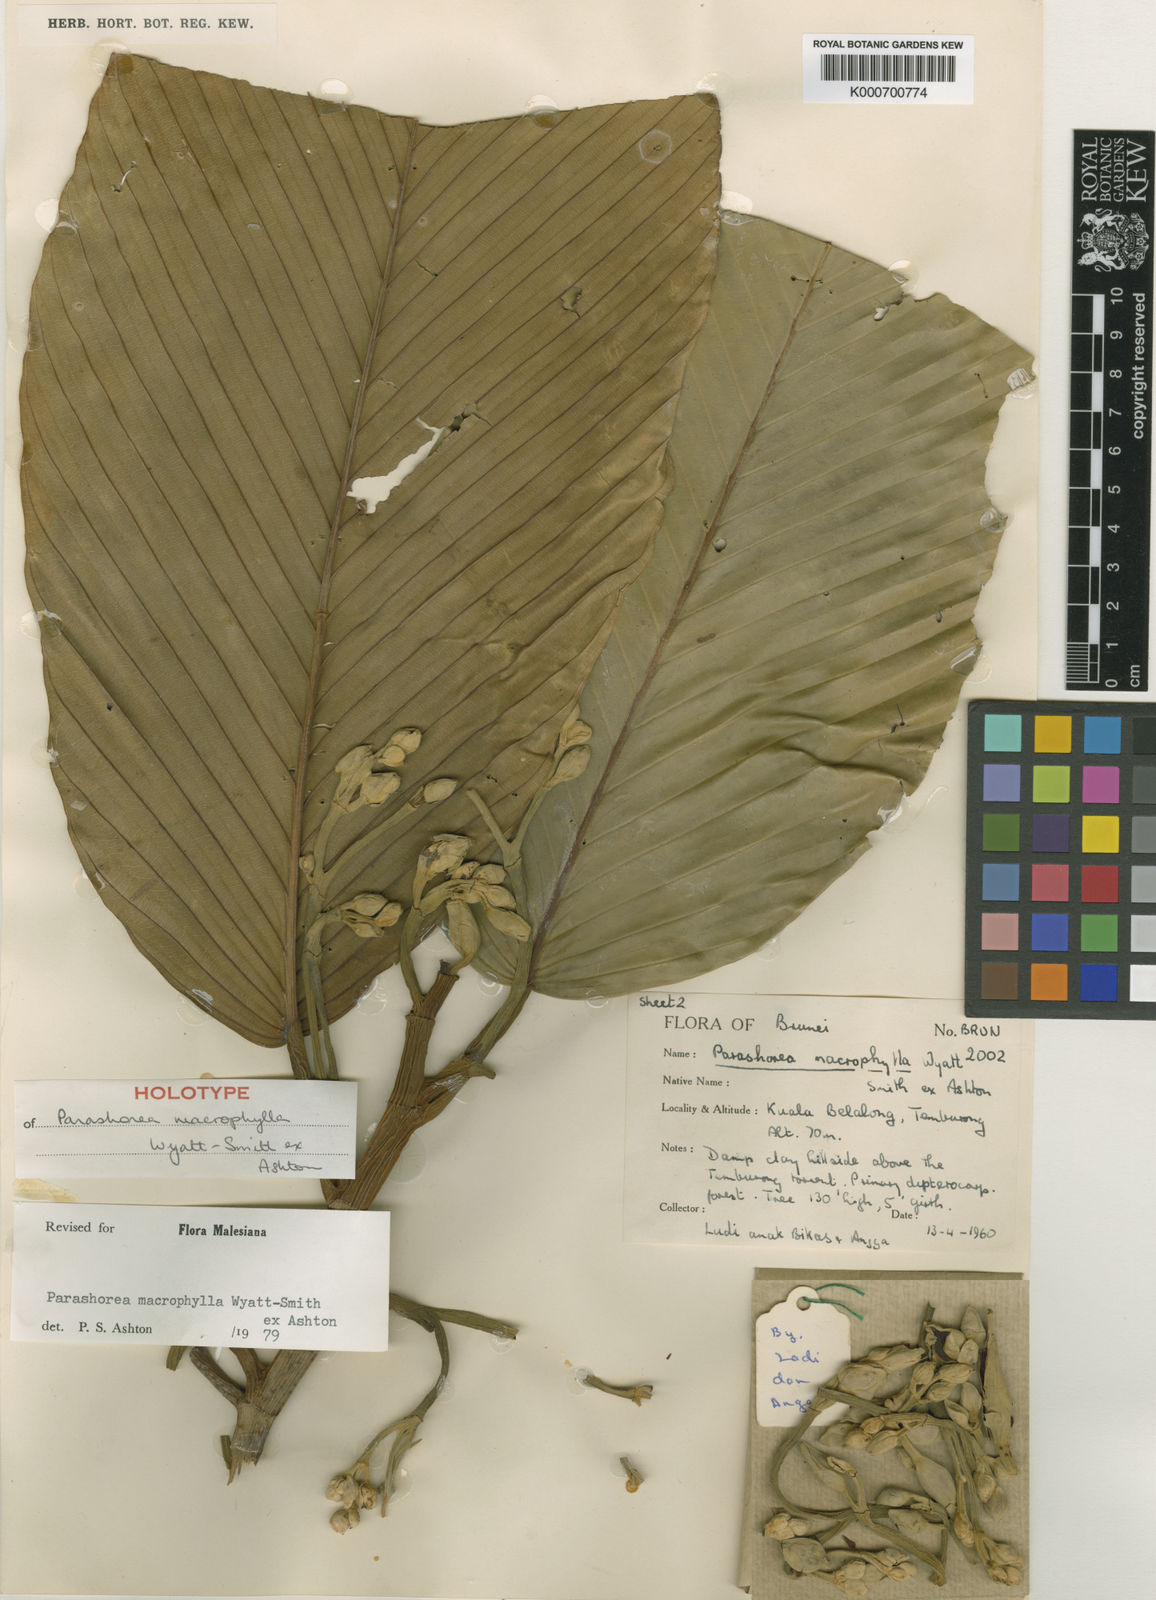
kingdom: Plantae
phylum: Tracheophyta
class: Magnoliopsida
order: Malvales
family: Dipterocarpaceae
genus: Parashorea
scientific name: Parashorea macrophylla
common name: White lauan
